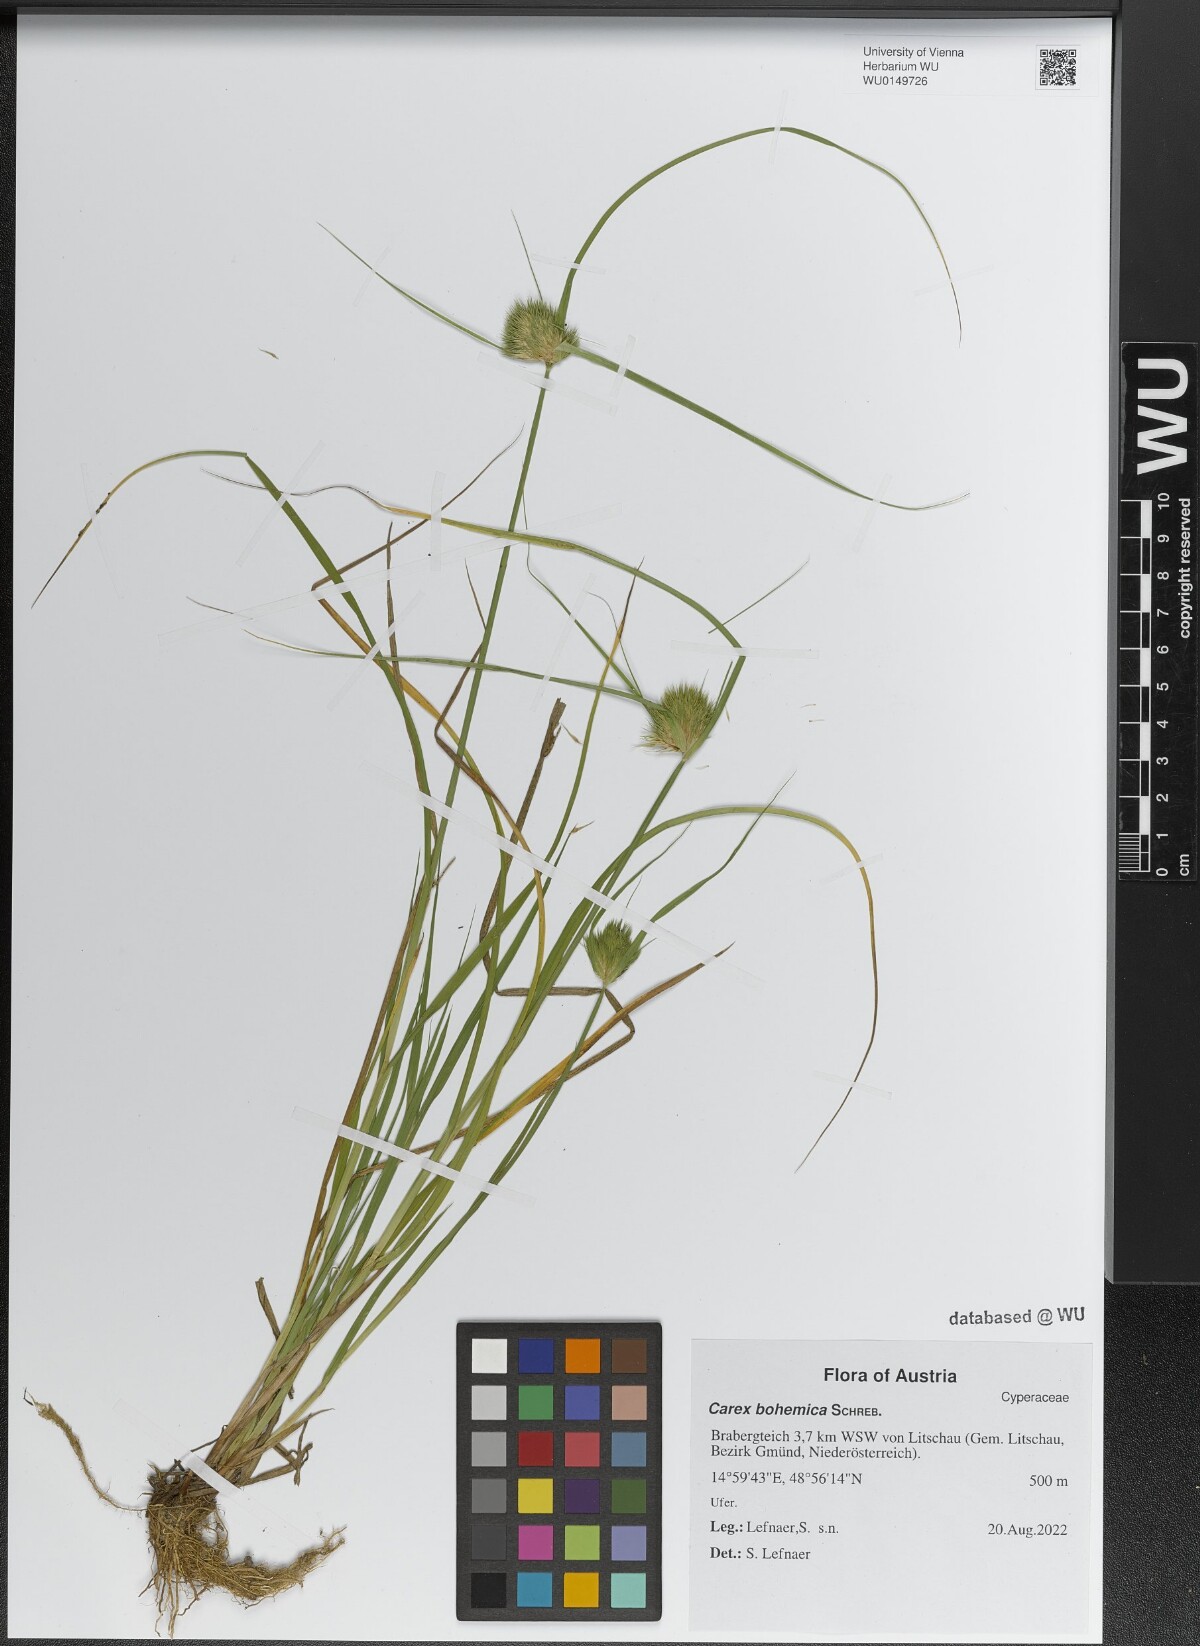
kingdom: Plantae
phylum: Tracheophyta
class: Liliopsida
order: Poales
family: Cyperaceae
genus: Carex
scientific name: Carex bohemica
